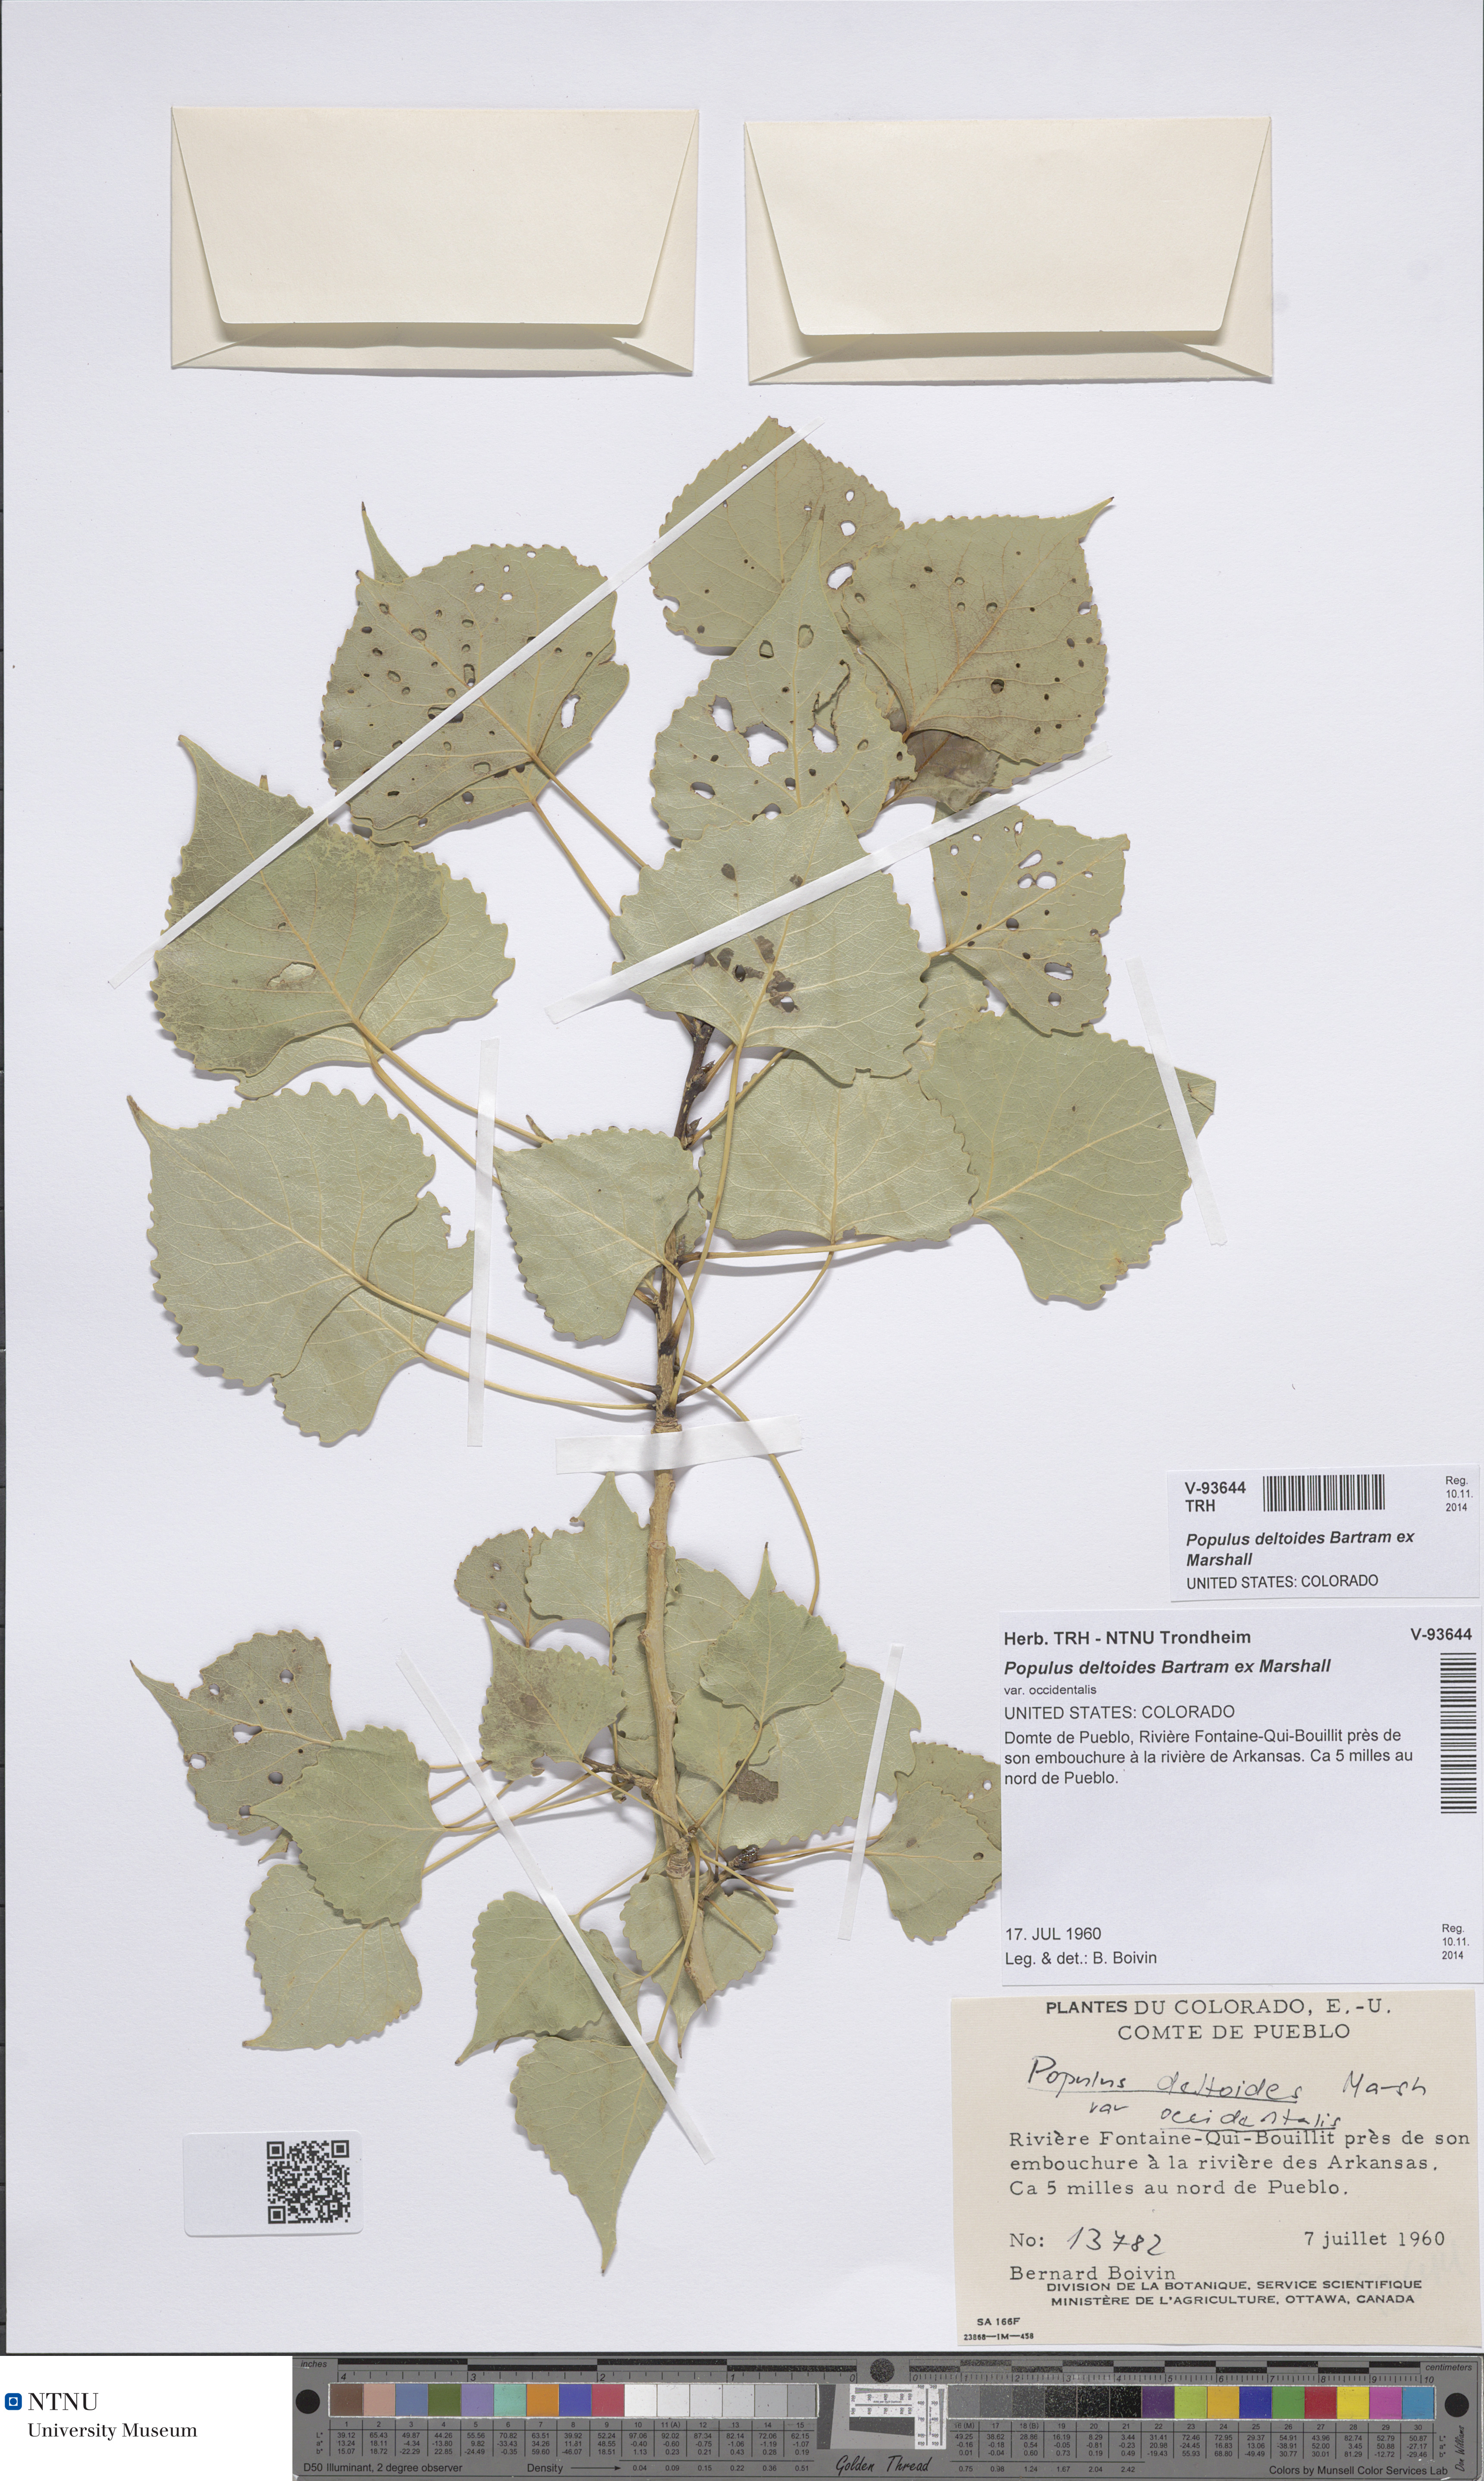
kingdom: Plantae
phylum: Tracheophyta
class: Magnoliopsida
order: Malpighiales
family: Salicaceae
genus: Populus
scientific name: Populus deltoides
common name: Eastern cottonwood
